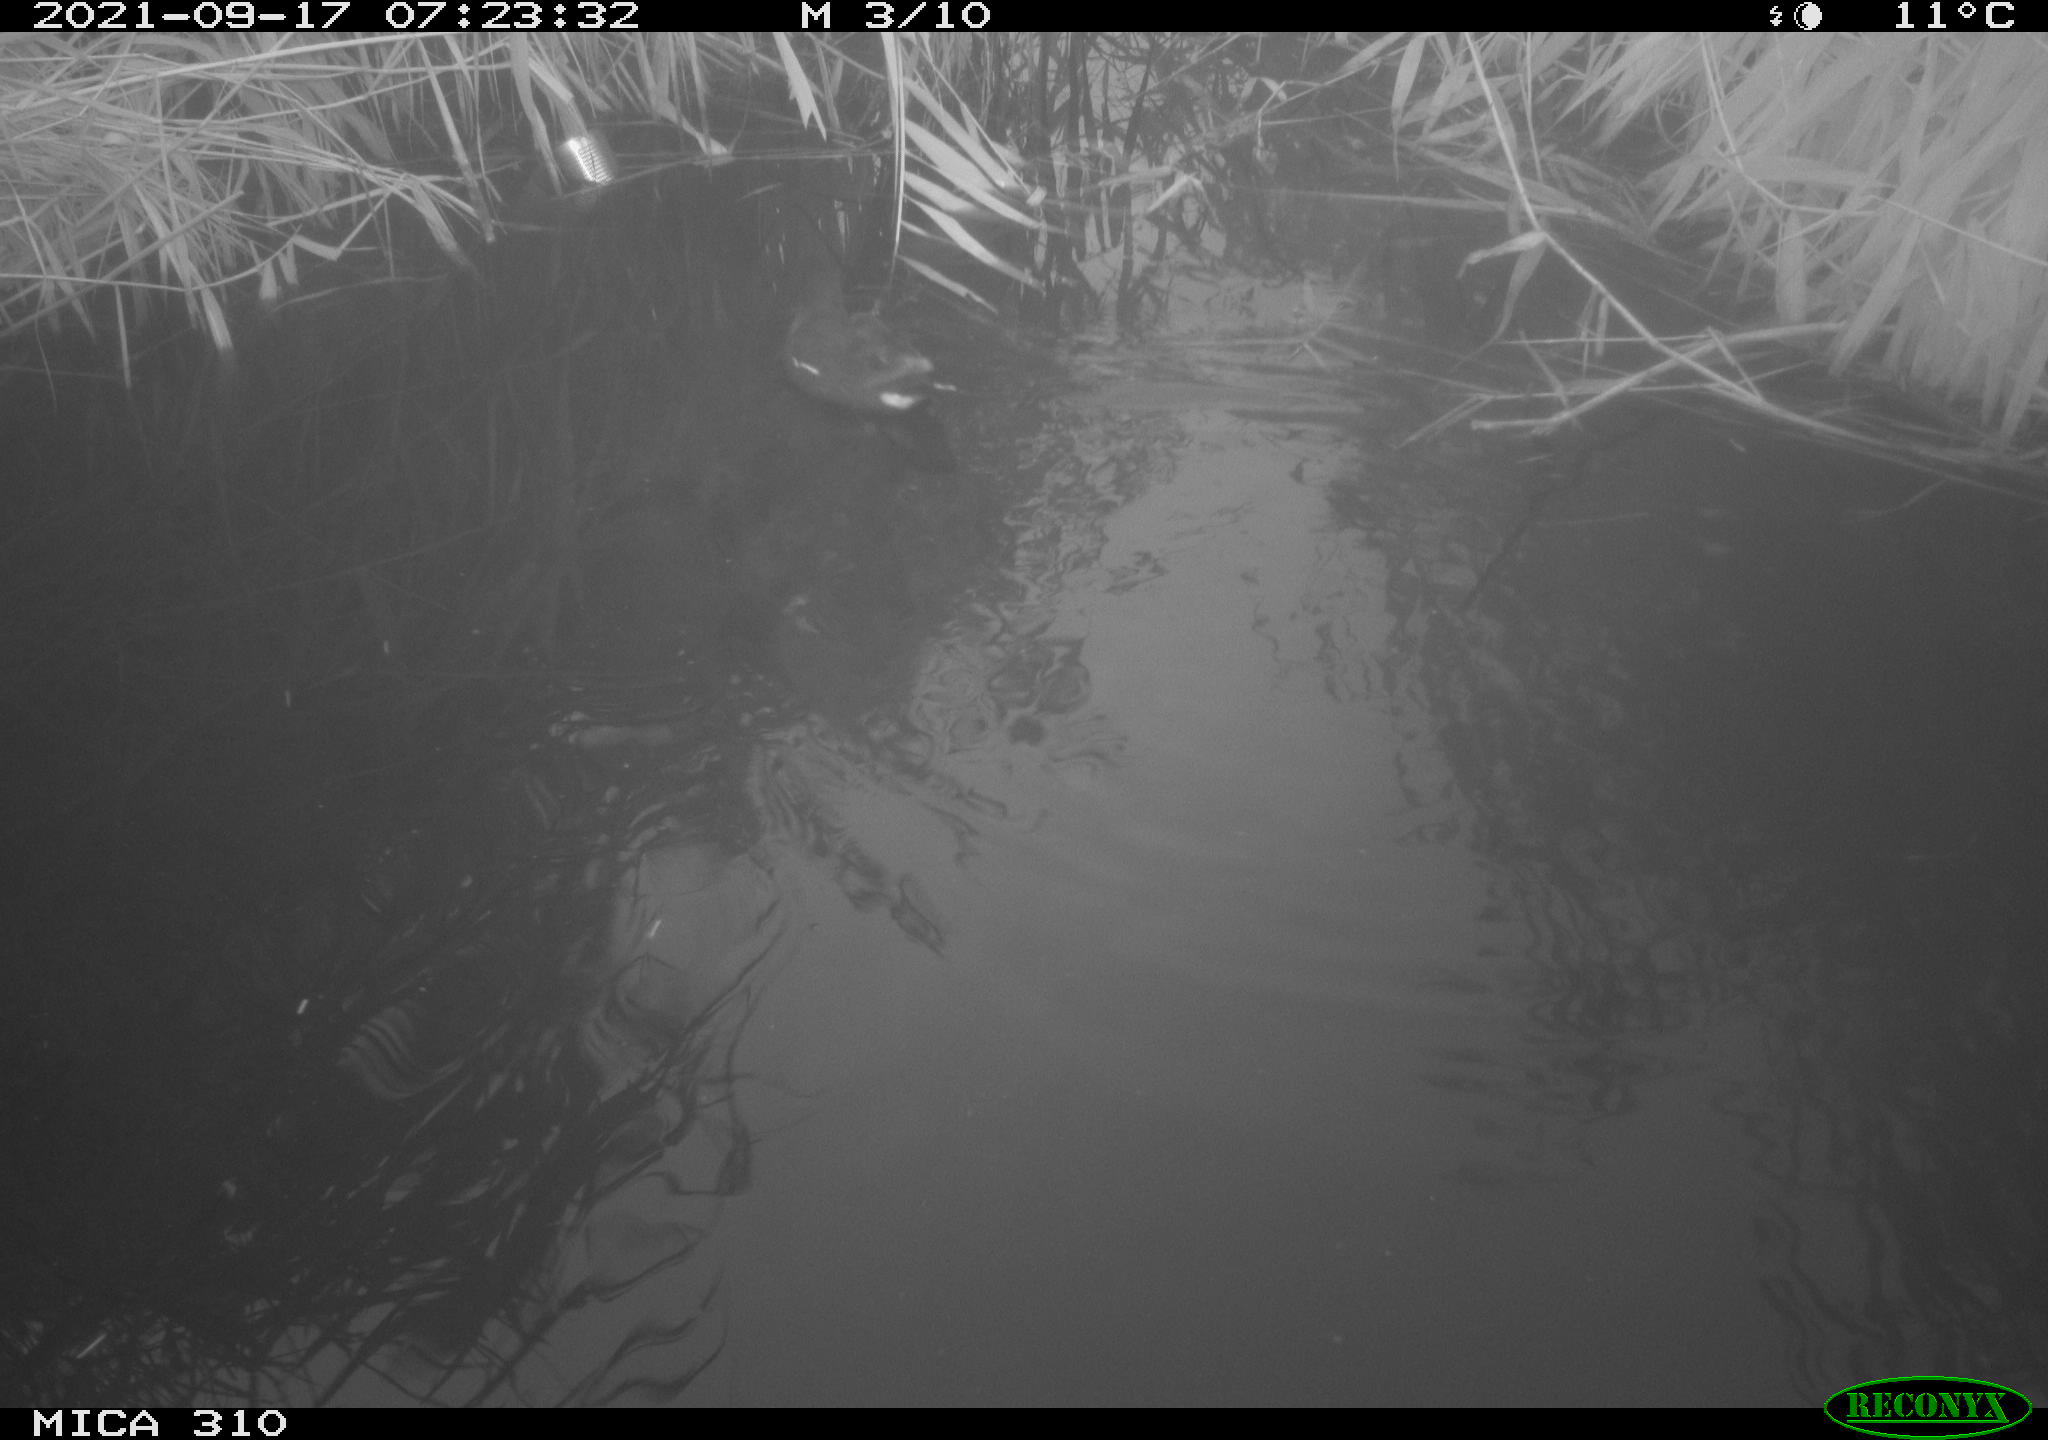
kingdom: Animalia
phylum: Chordata
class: Aves
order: Gruiformes
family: Rallidae
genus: Gallinula
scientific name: Gallinula chloropus
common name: Common moorhen
